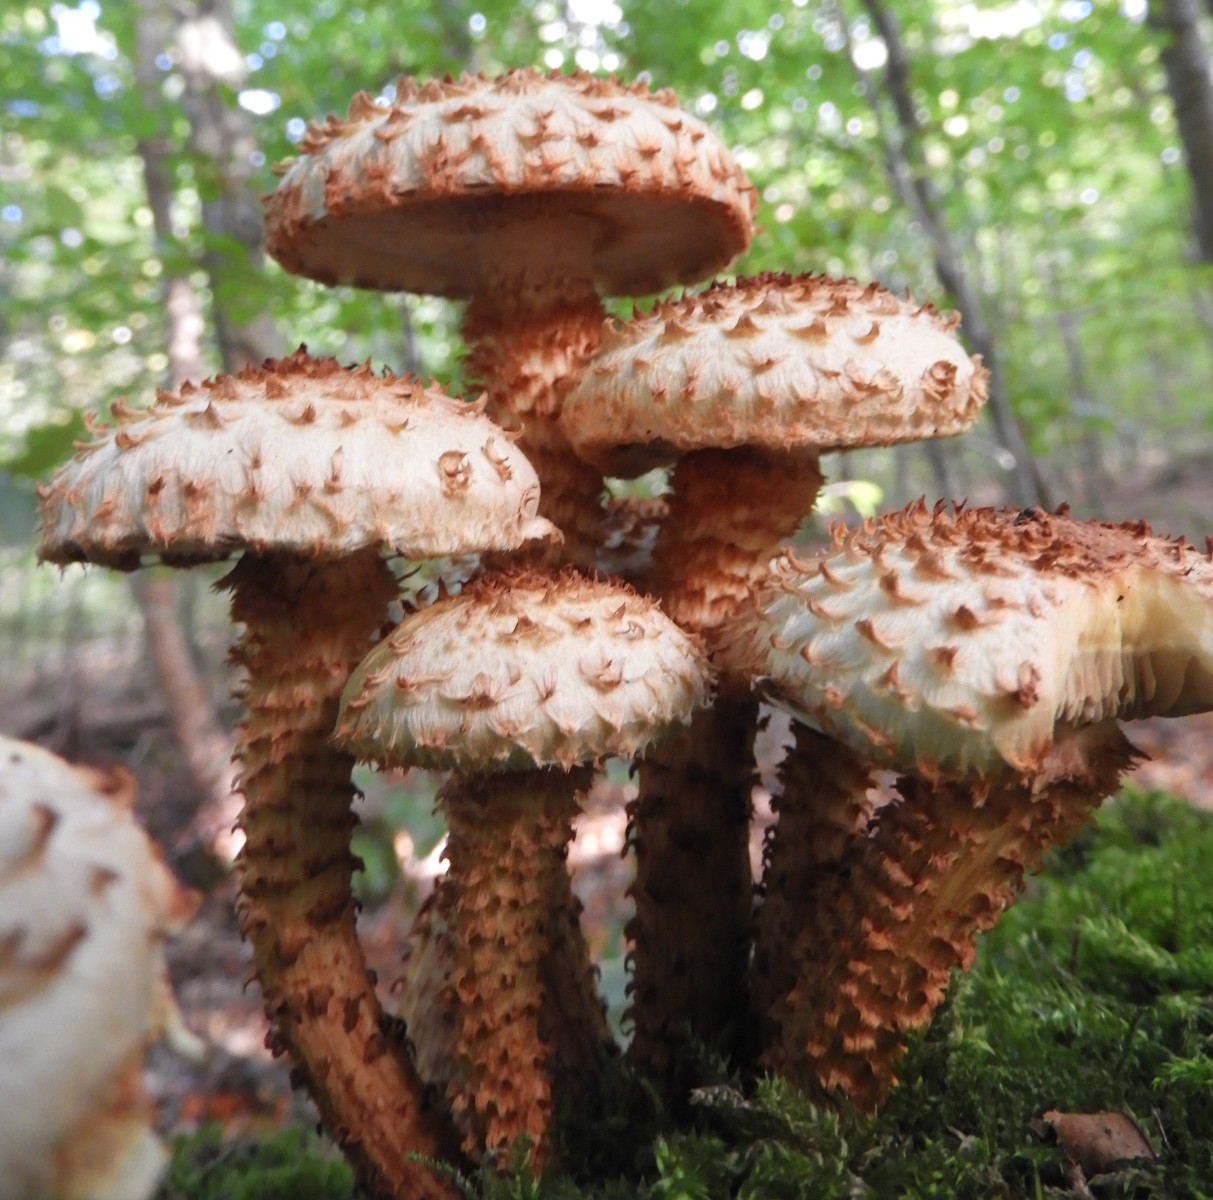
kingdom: Fungi
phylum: Basidiomycota
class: Agaricomycetes
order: Agaricales
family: Strophariaceae
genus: Pholiota
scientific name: Pholiota squarrosa
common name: krumskællet skælhat
